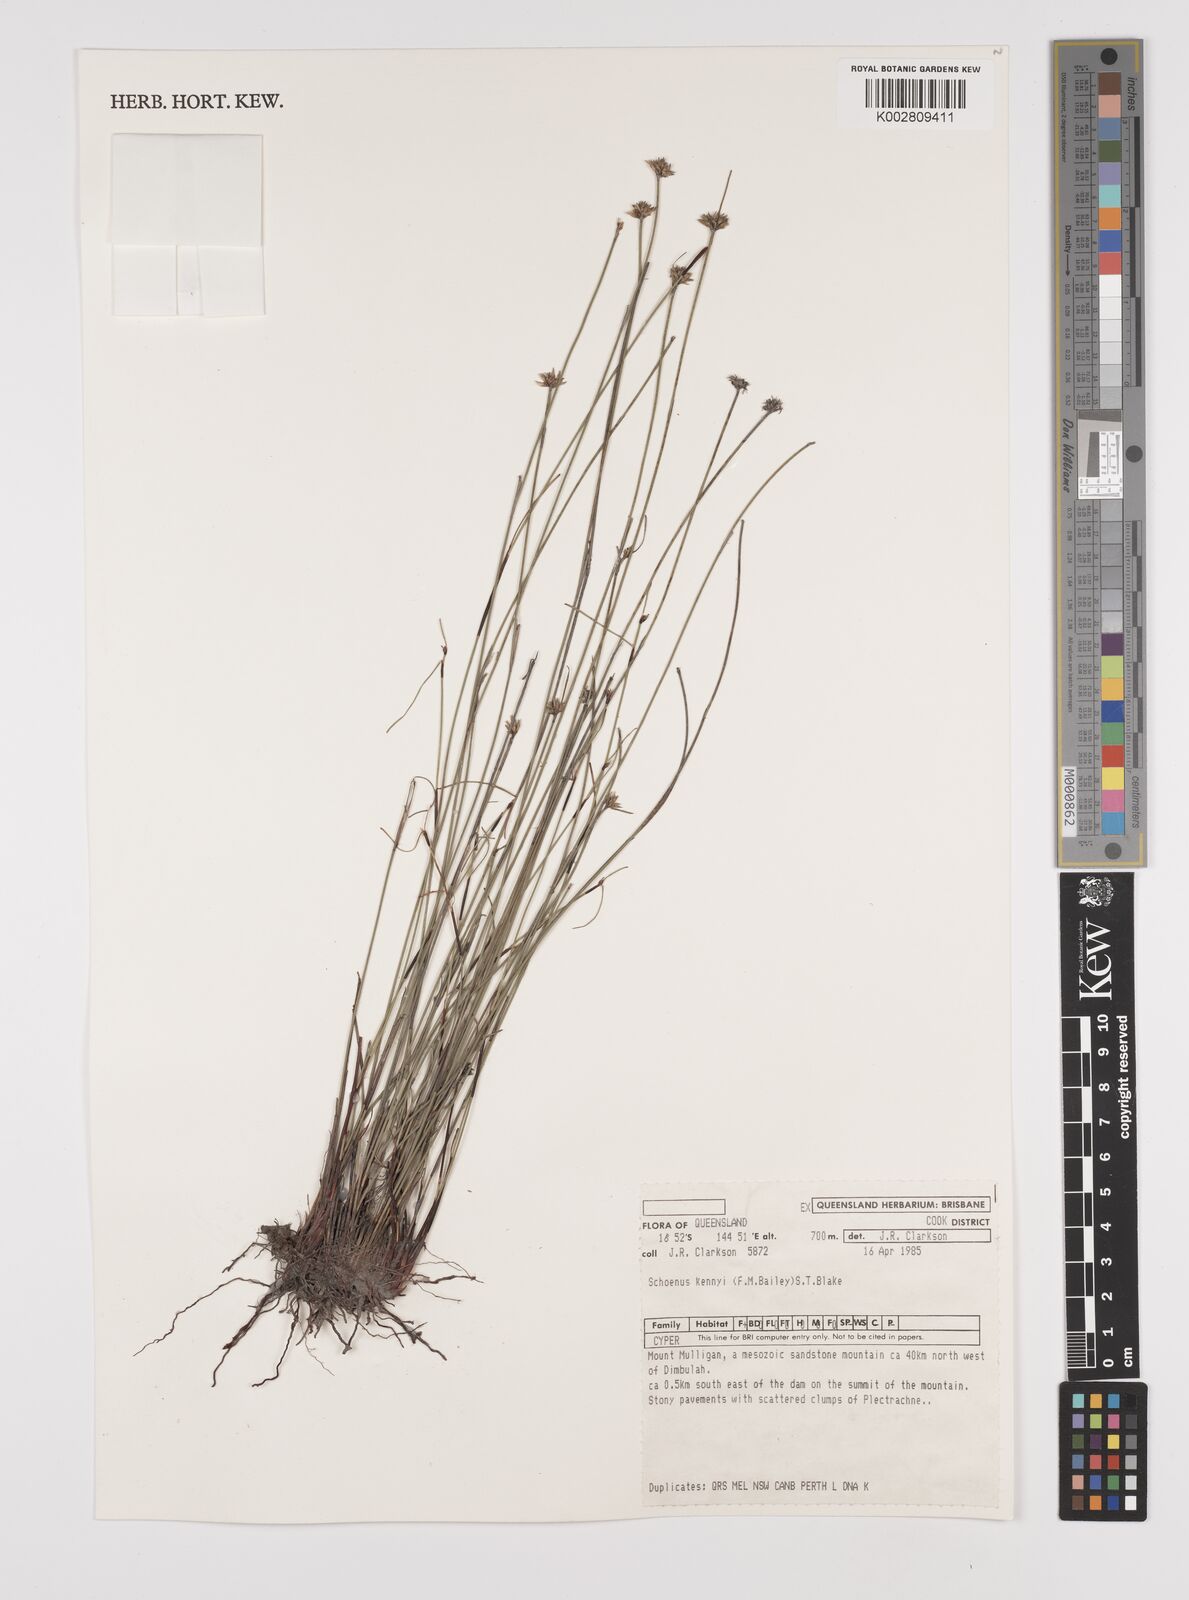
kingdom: Plantae
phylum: Tracheophyta
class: Liliopsida
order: Poales
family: Cyperaceae
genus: Schoenus
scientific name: Schoenus kennyi
